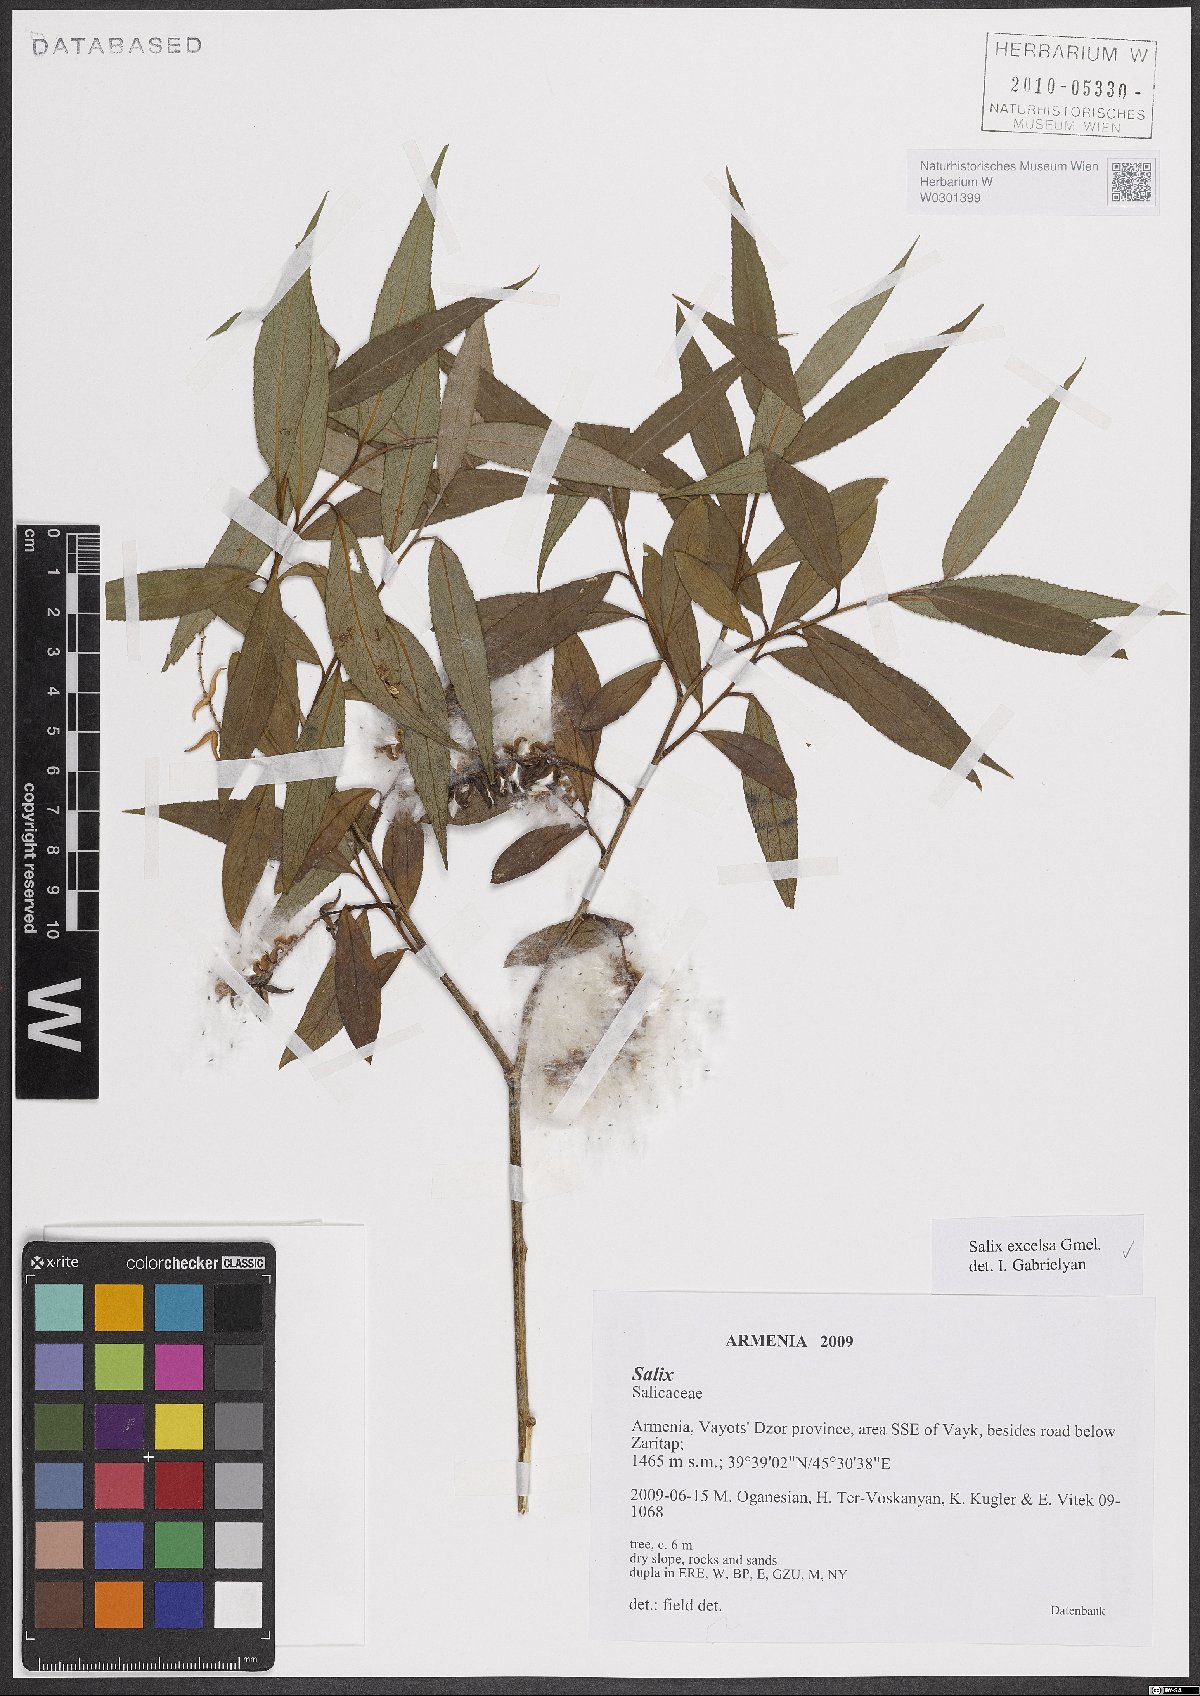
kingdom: Plantae
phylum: Tracheophyta
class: Magnoliopsida
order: Malpighiales
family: Salicaceae
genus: Salix
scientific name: Salix excelsa
